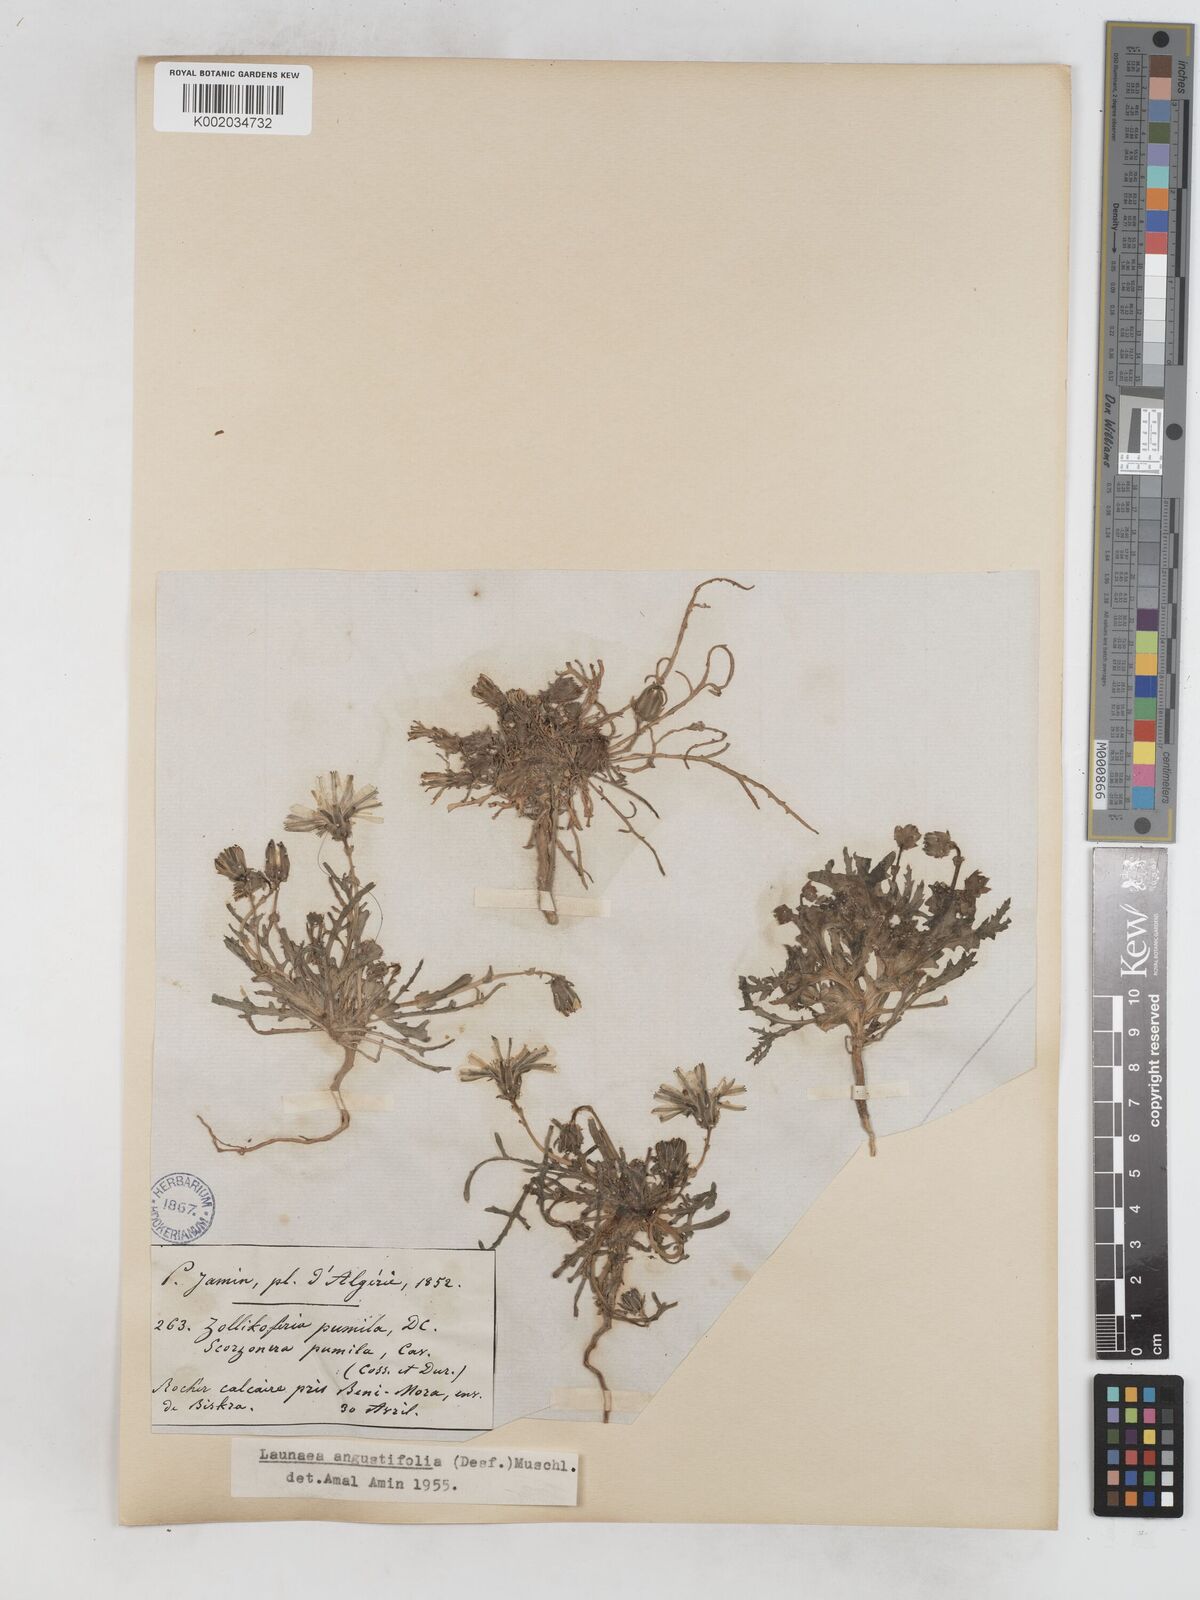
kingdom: Plantae
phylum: Tracheophyta
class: Magnoliopsida
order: Asterales
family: Asteraceae
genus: Launaea
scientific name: Launaea angustifolia
